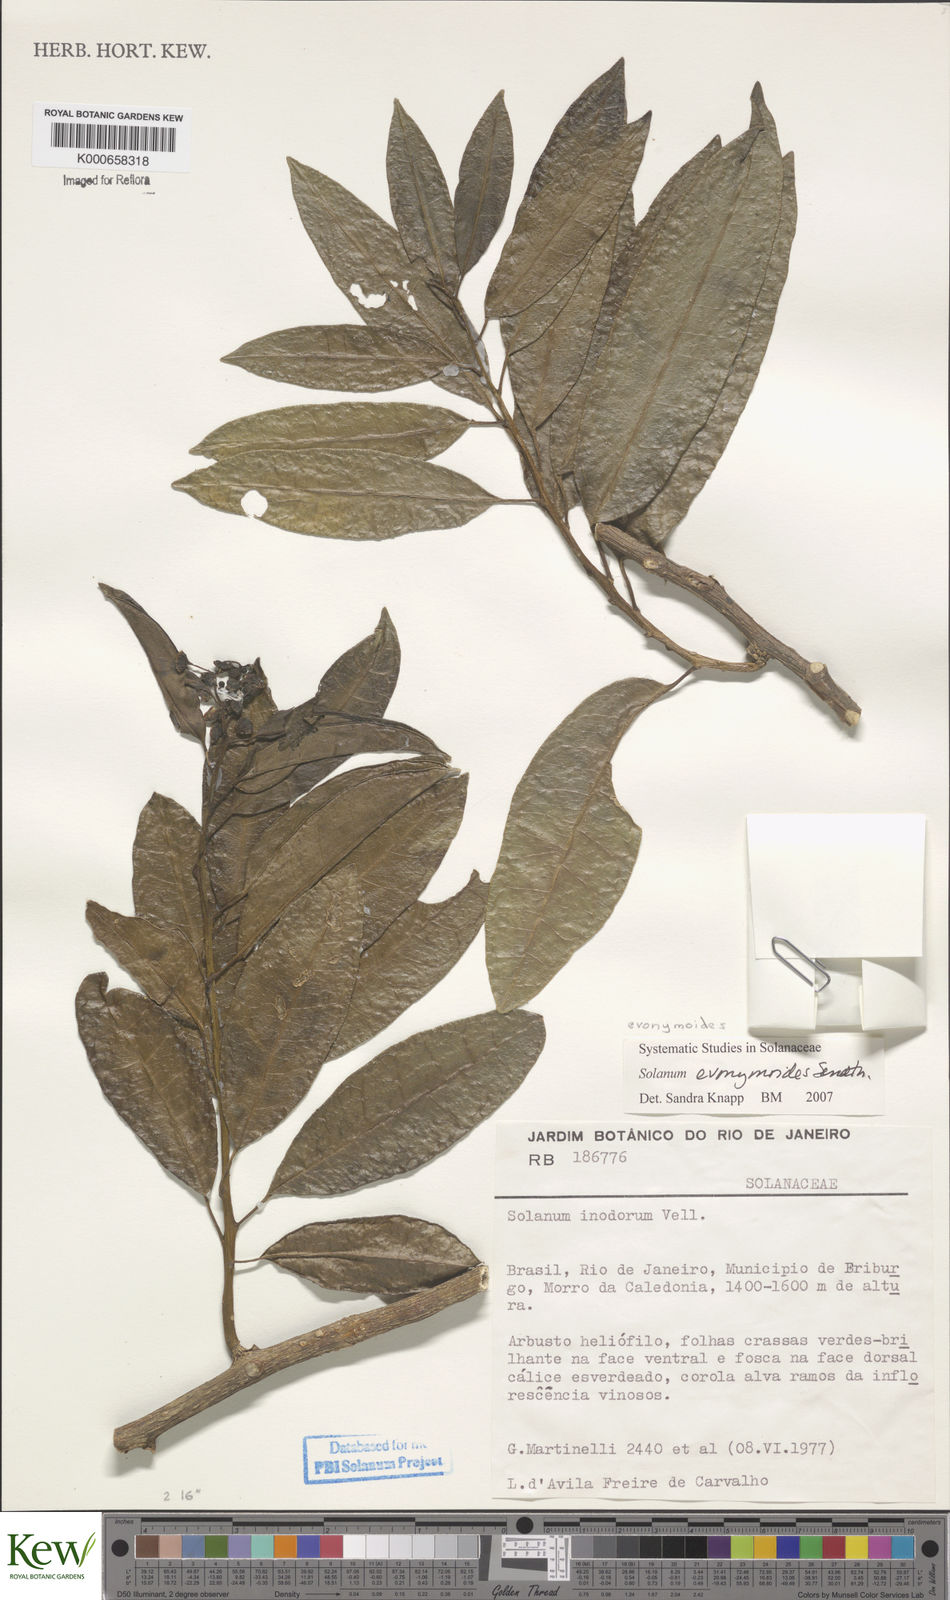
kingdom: Plantae
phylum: Tracheophyta
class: Magnoliopsida
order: Solanales
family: Solanaceae
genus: Solanum
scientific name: Solanum evonymoides
